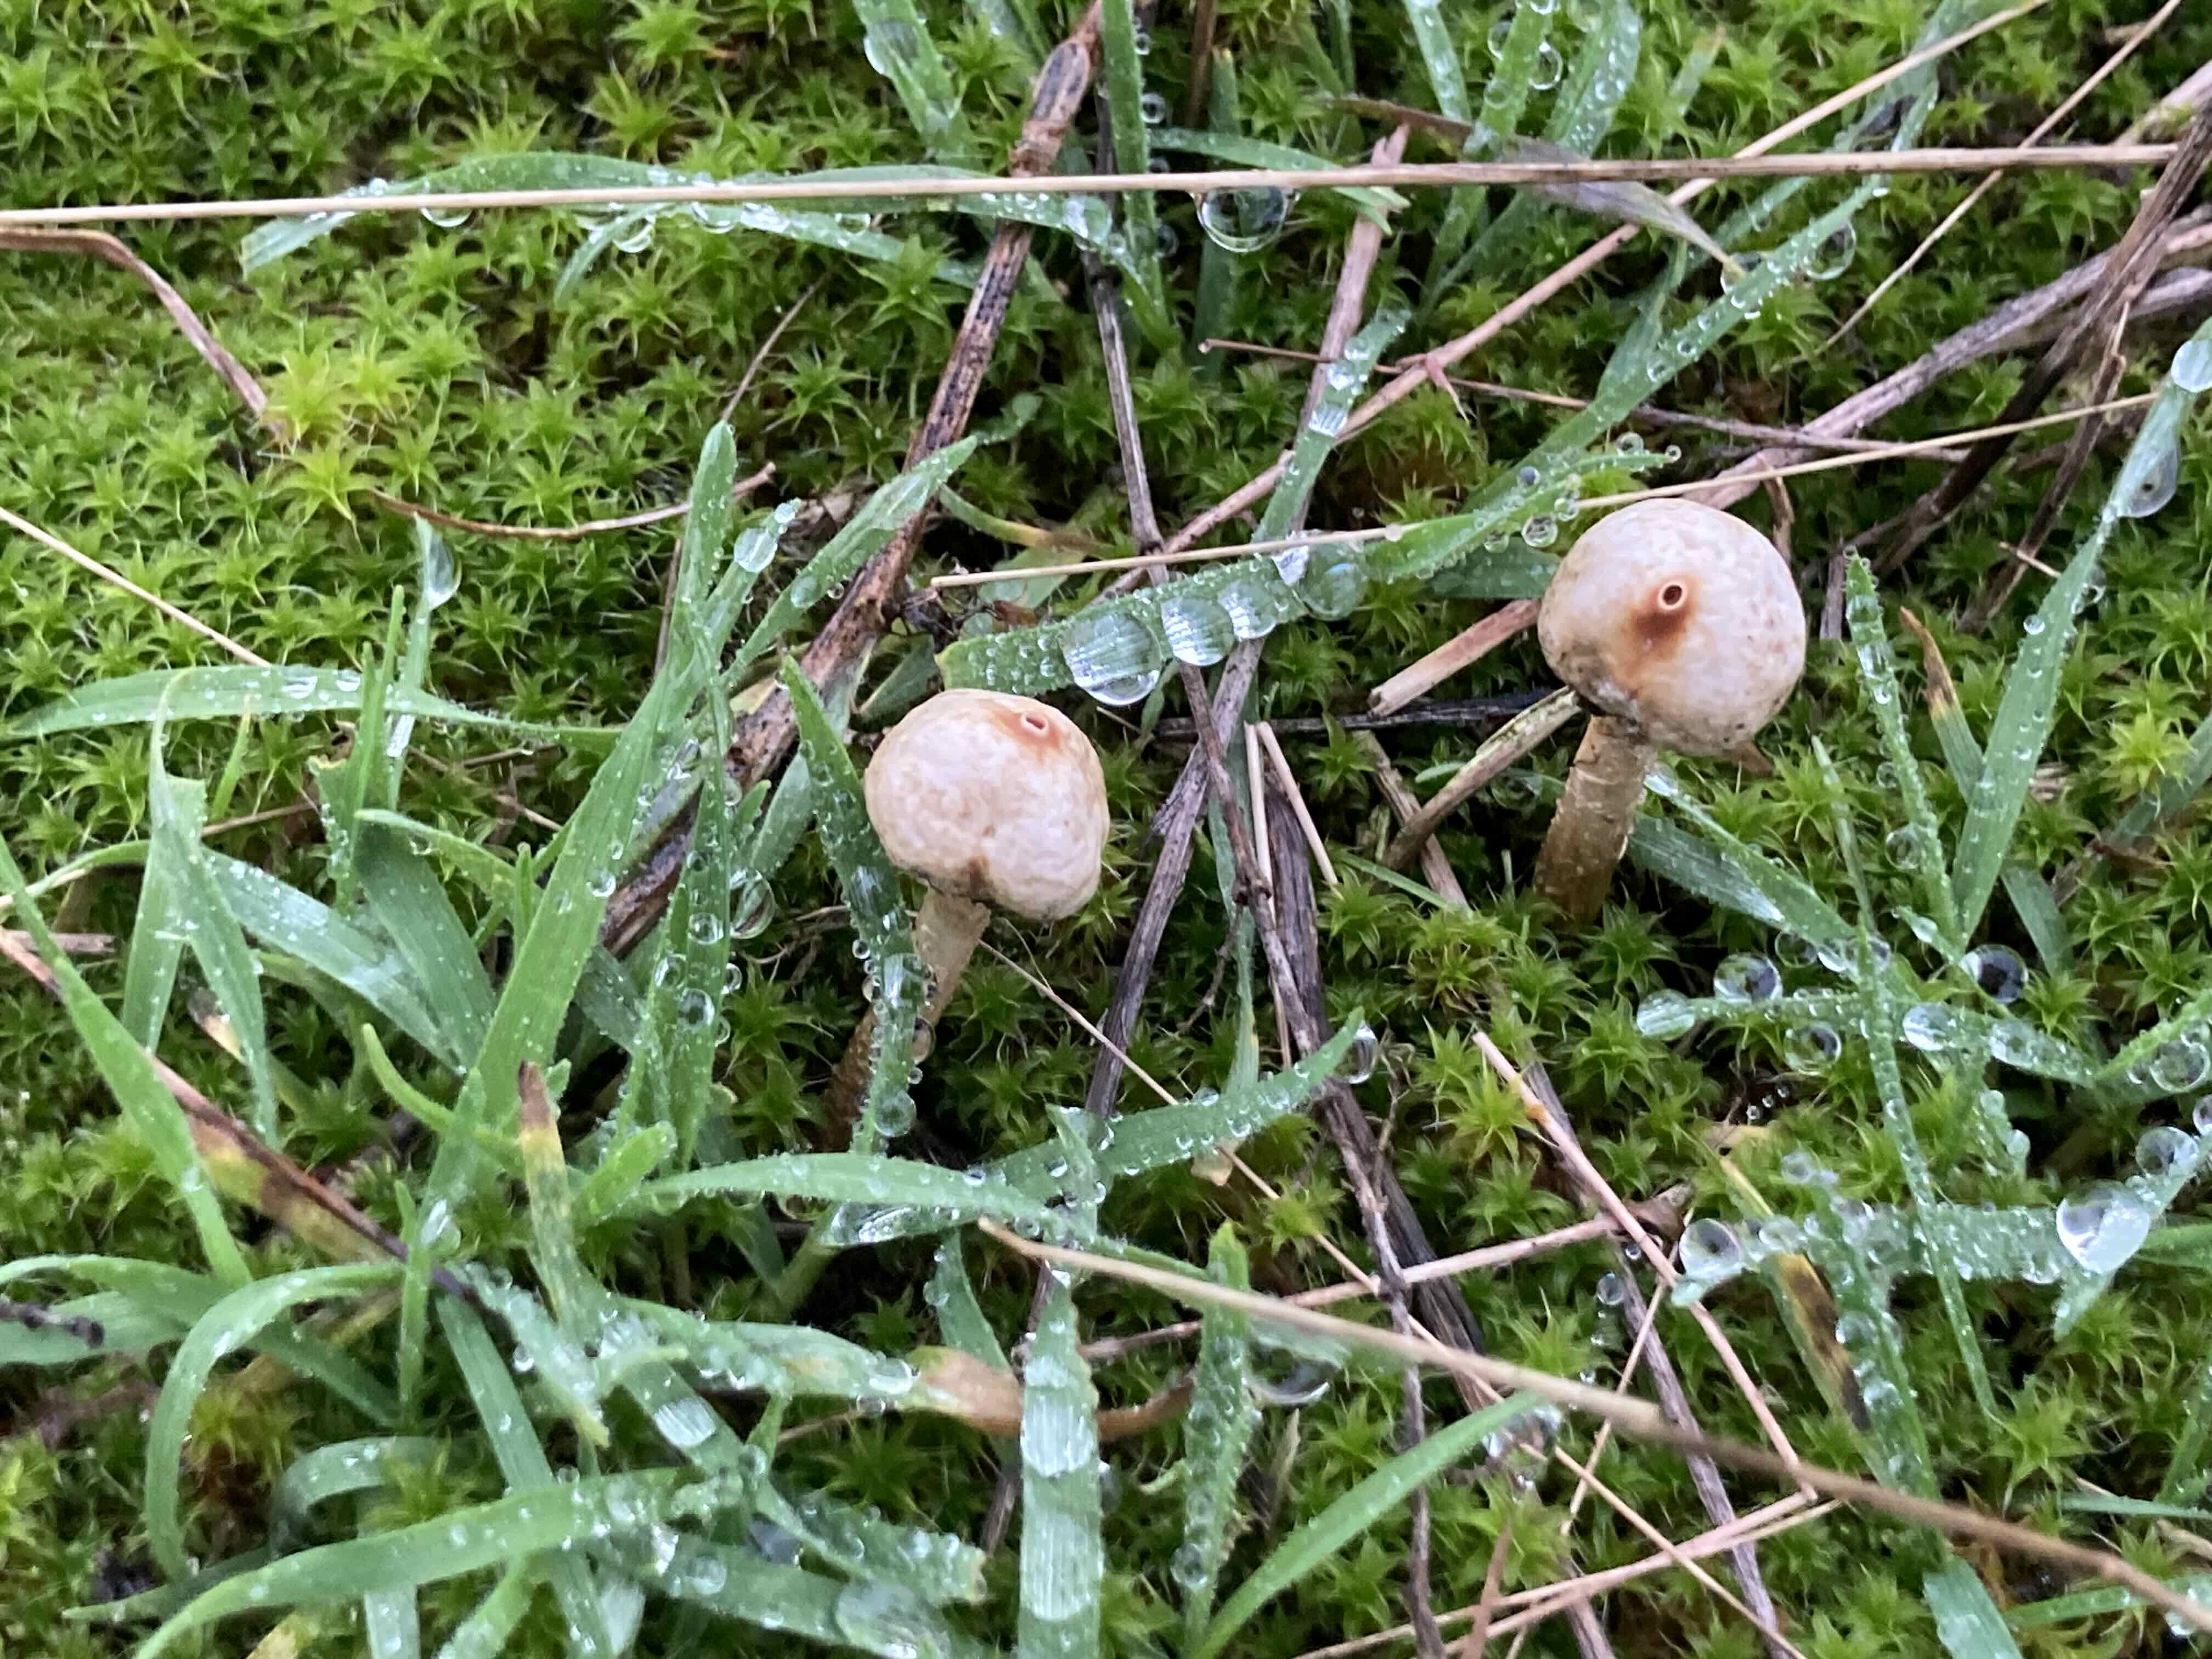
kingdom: Fungi
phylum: Basidiomycota
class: Agaricomycetes
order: Agaricales
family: Agaricaceae
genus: Tulostoma
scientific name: Tulostoma brumale
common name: vinter-stilkbovist
